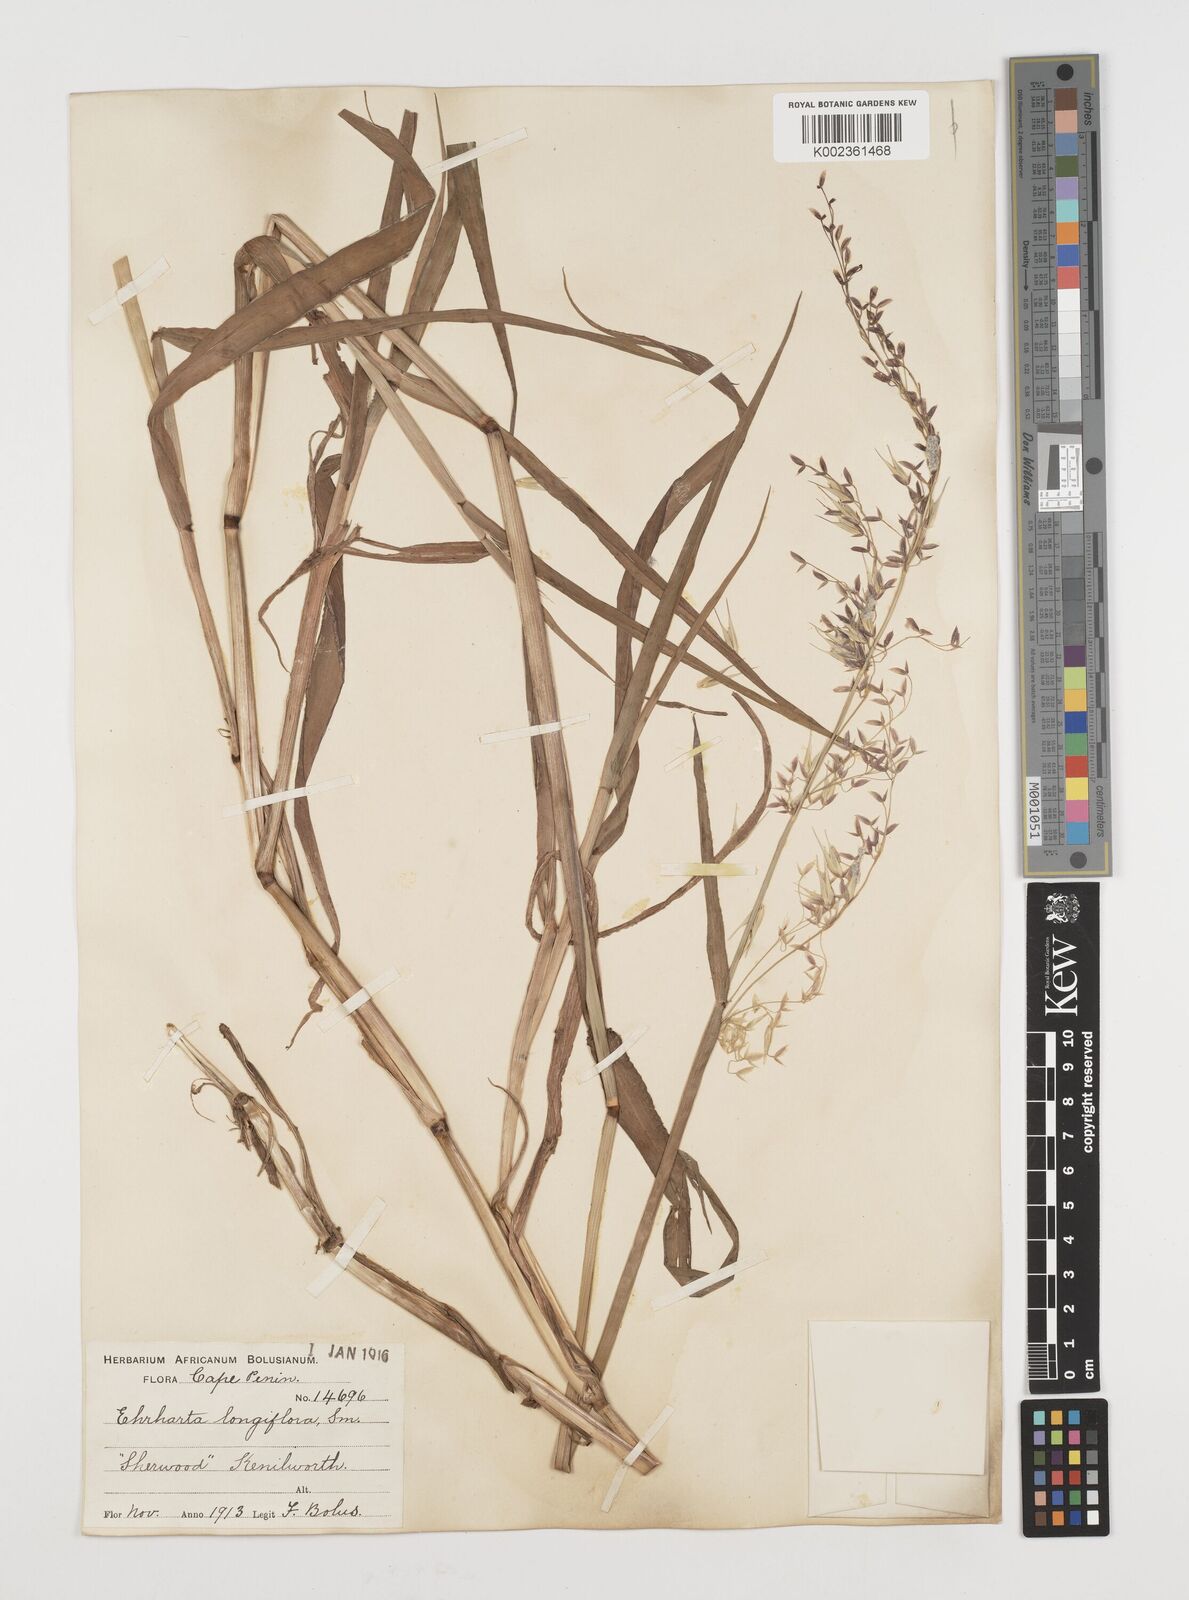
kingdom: Plantae
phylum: Tracheophyta
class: Liliopsida
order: Poales
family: Poaceae
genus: Ehrharta
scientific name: Ehrharta longiflora
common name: Longflowered veldtgrass
